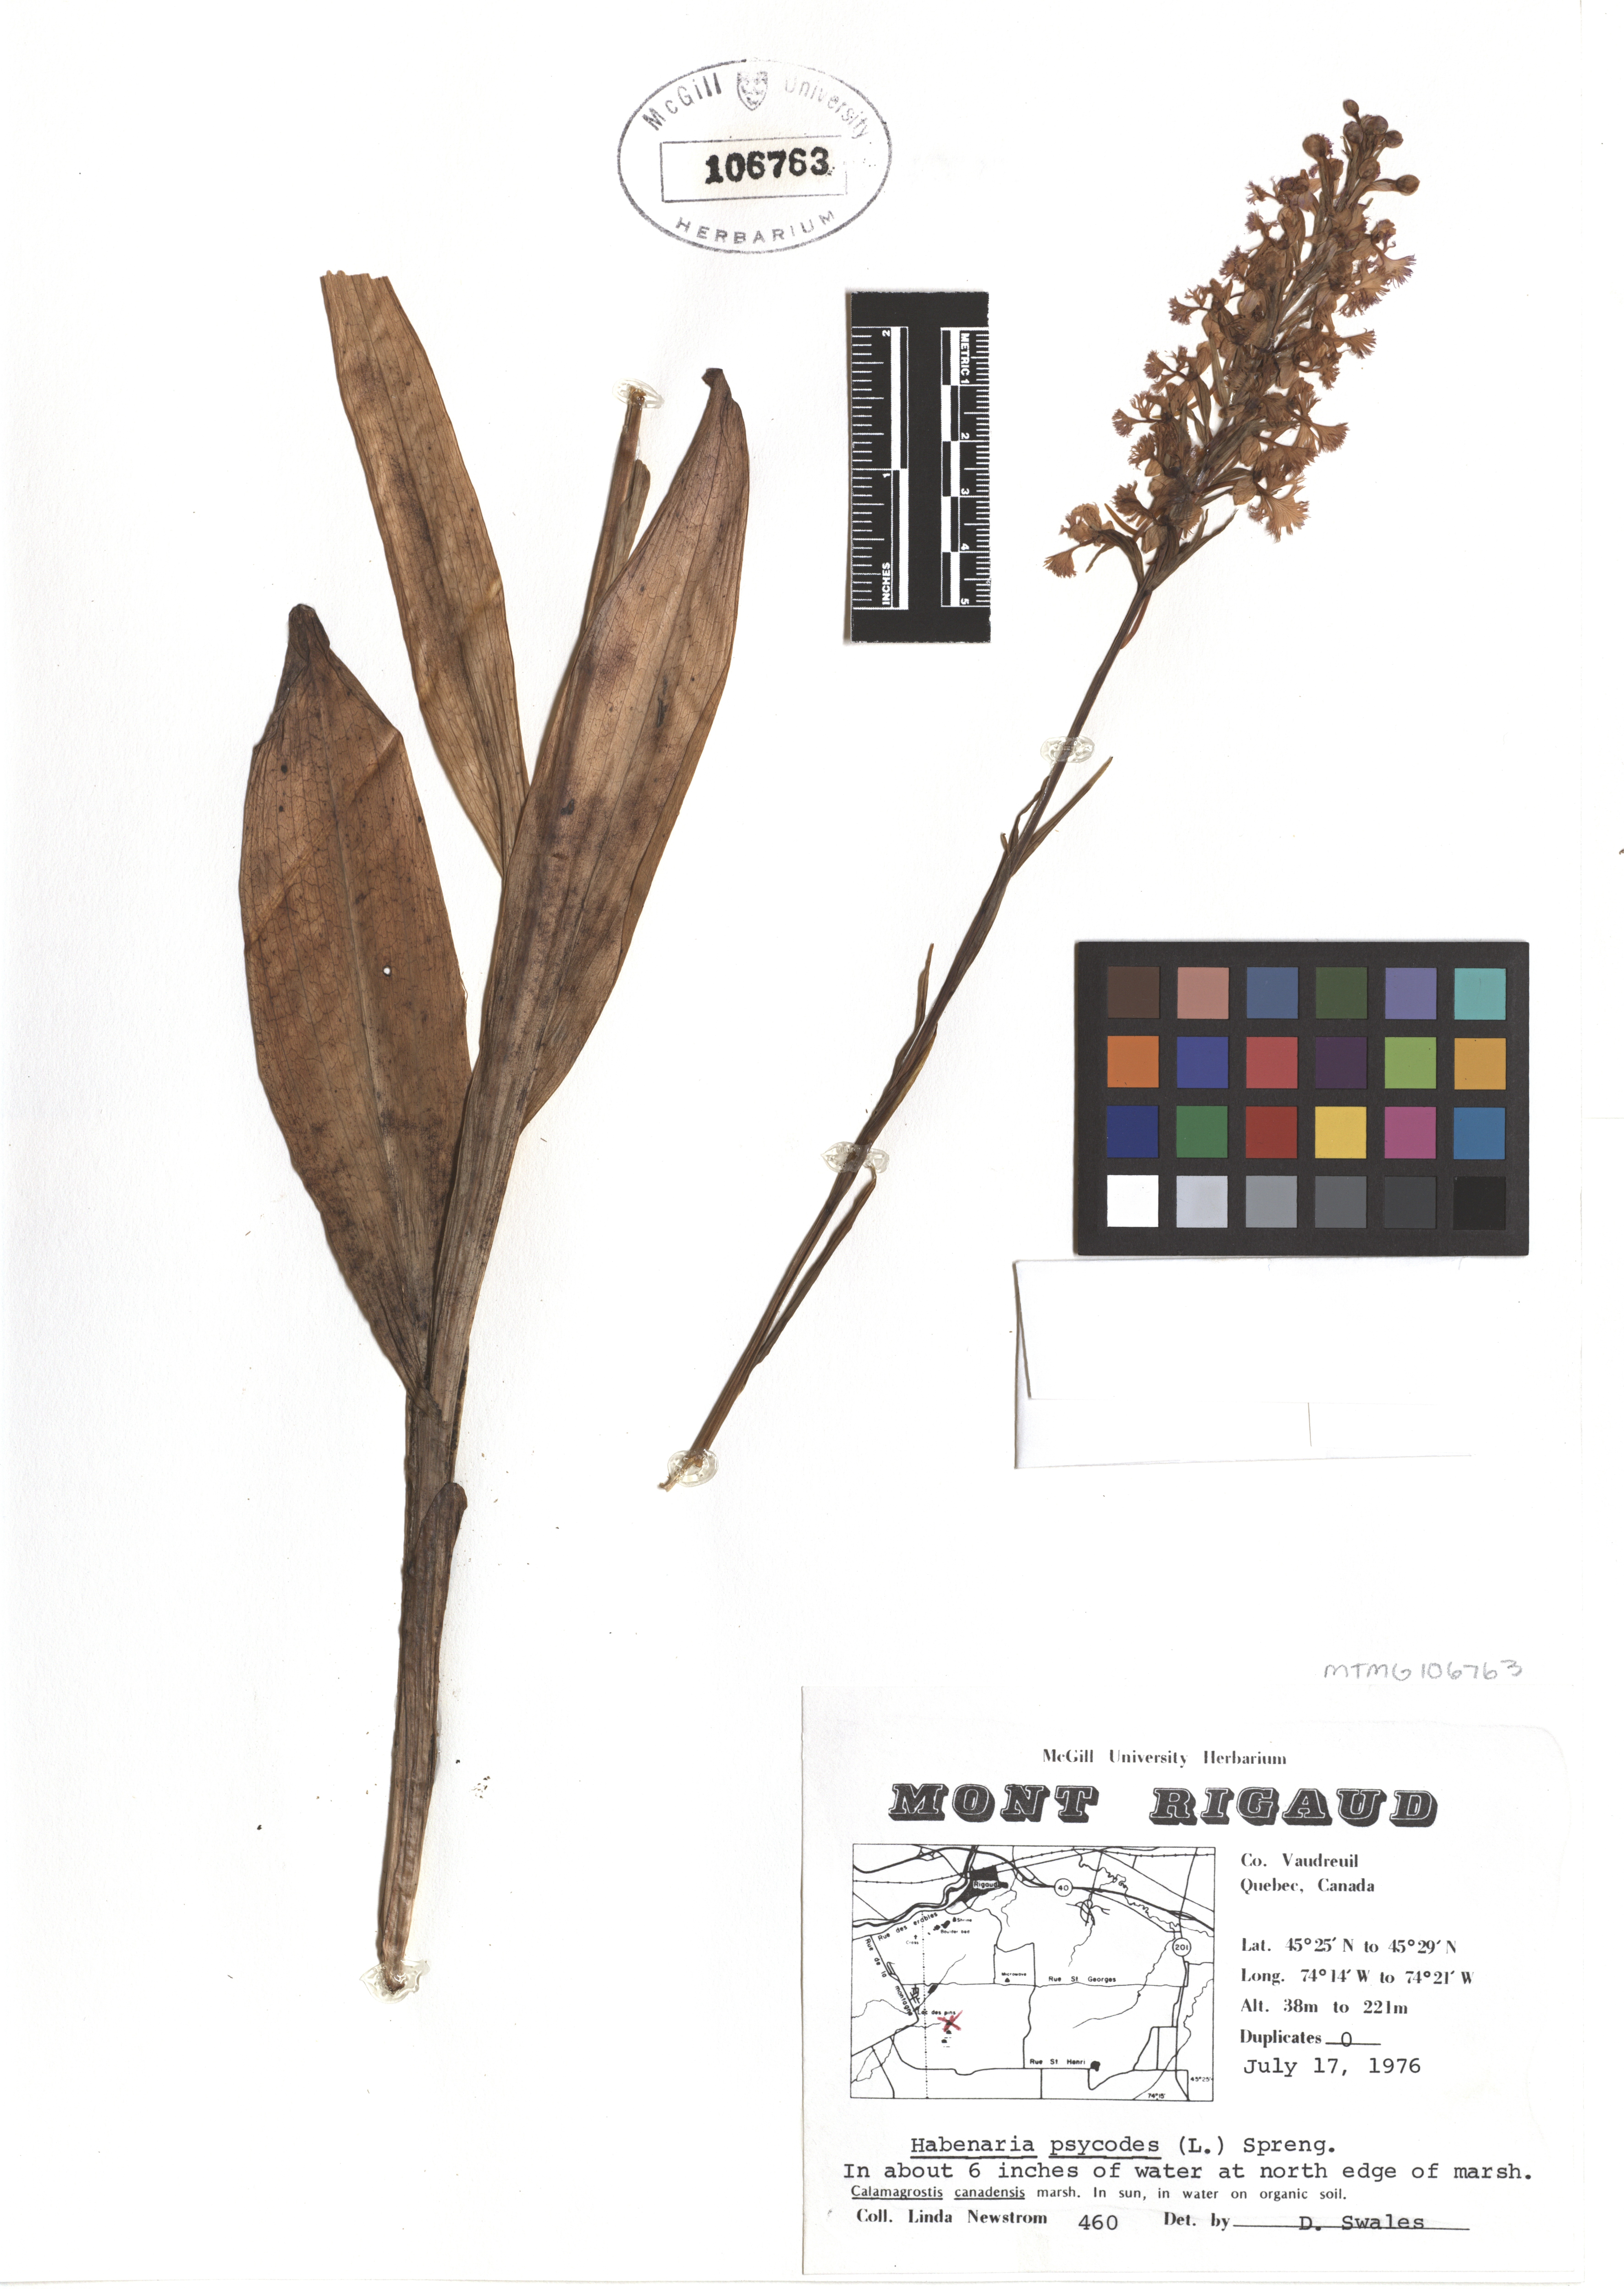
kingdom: Plantae
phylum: Tracheophyta
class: Liliopsida
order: Asparagales
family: Orchidaceae
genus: Platanthera
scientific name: Platanthera psycodes
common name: Lesser purple fringed orchid
